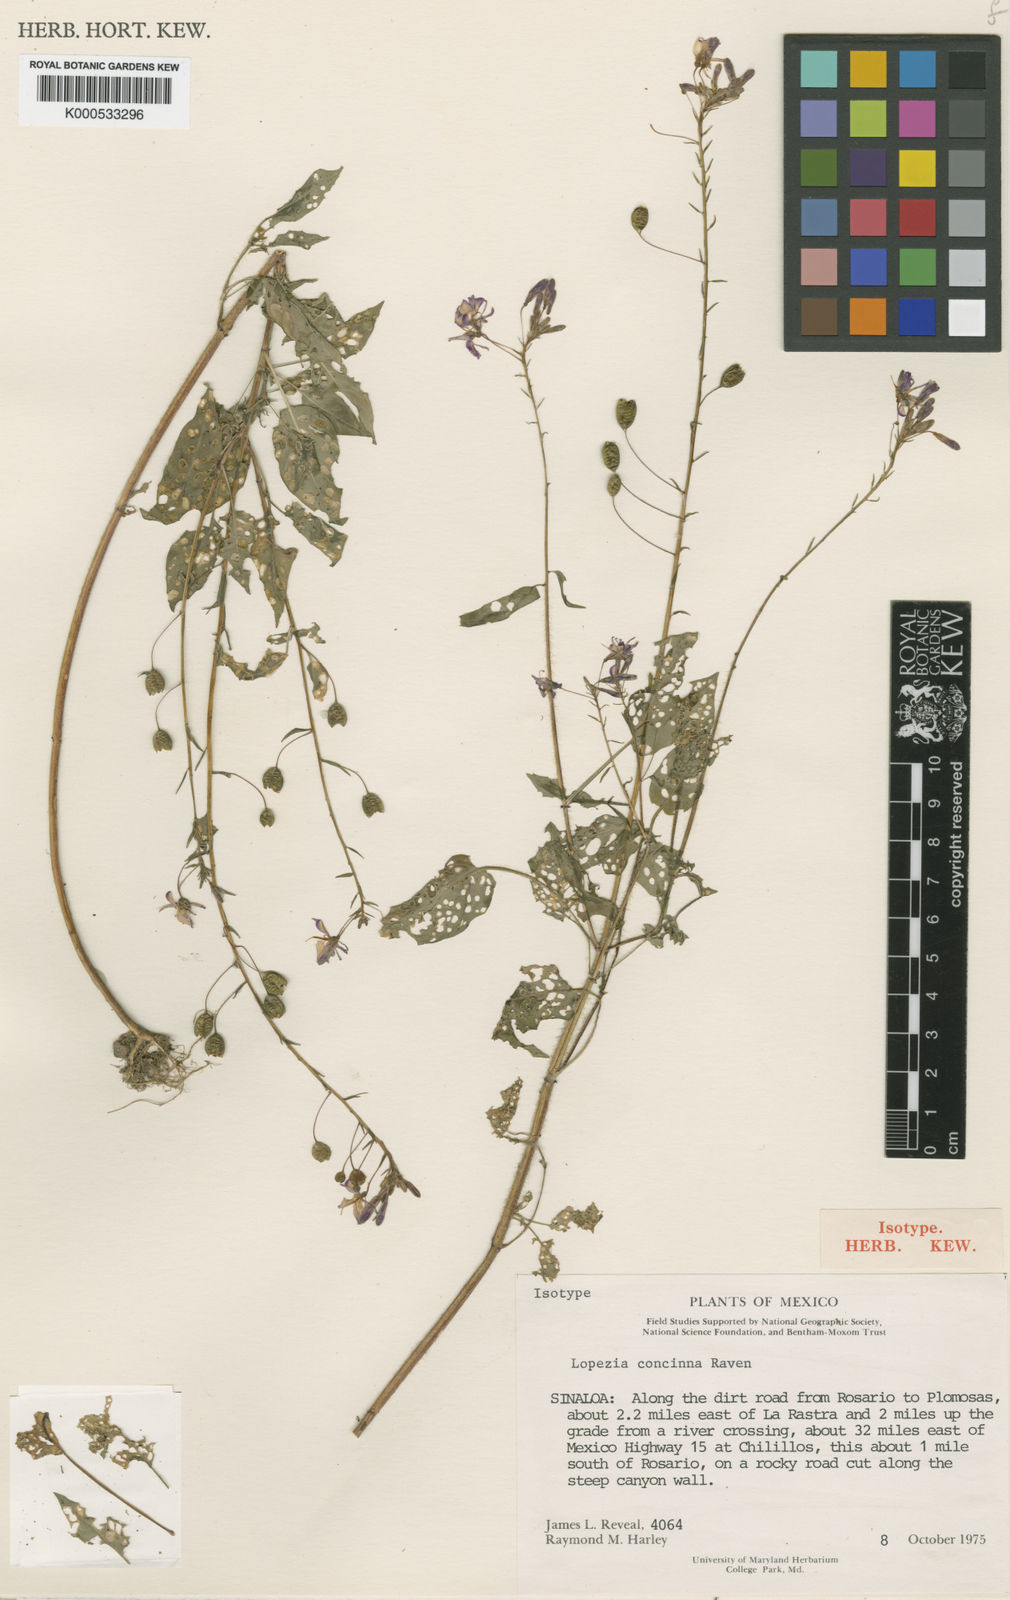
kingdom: Plantae
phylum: Tracheophyta
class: Magnoliopsida
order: Myrtales
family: Onagraceae
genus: Lopezia
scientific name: Lopezia concinna
